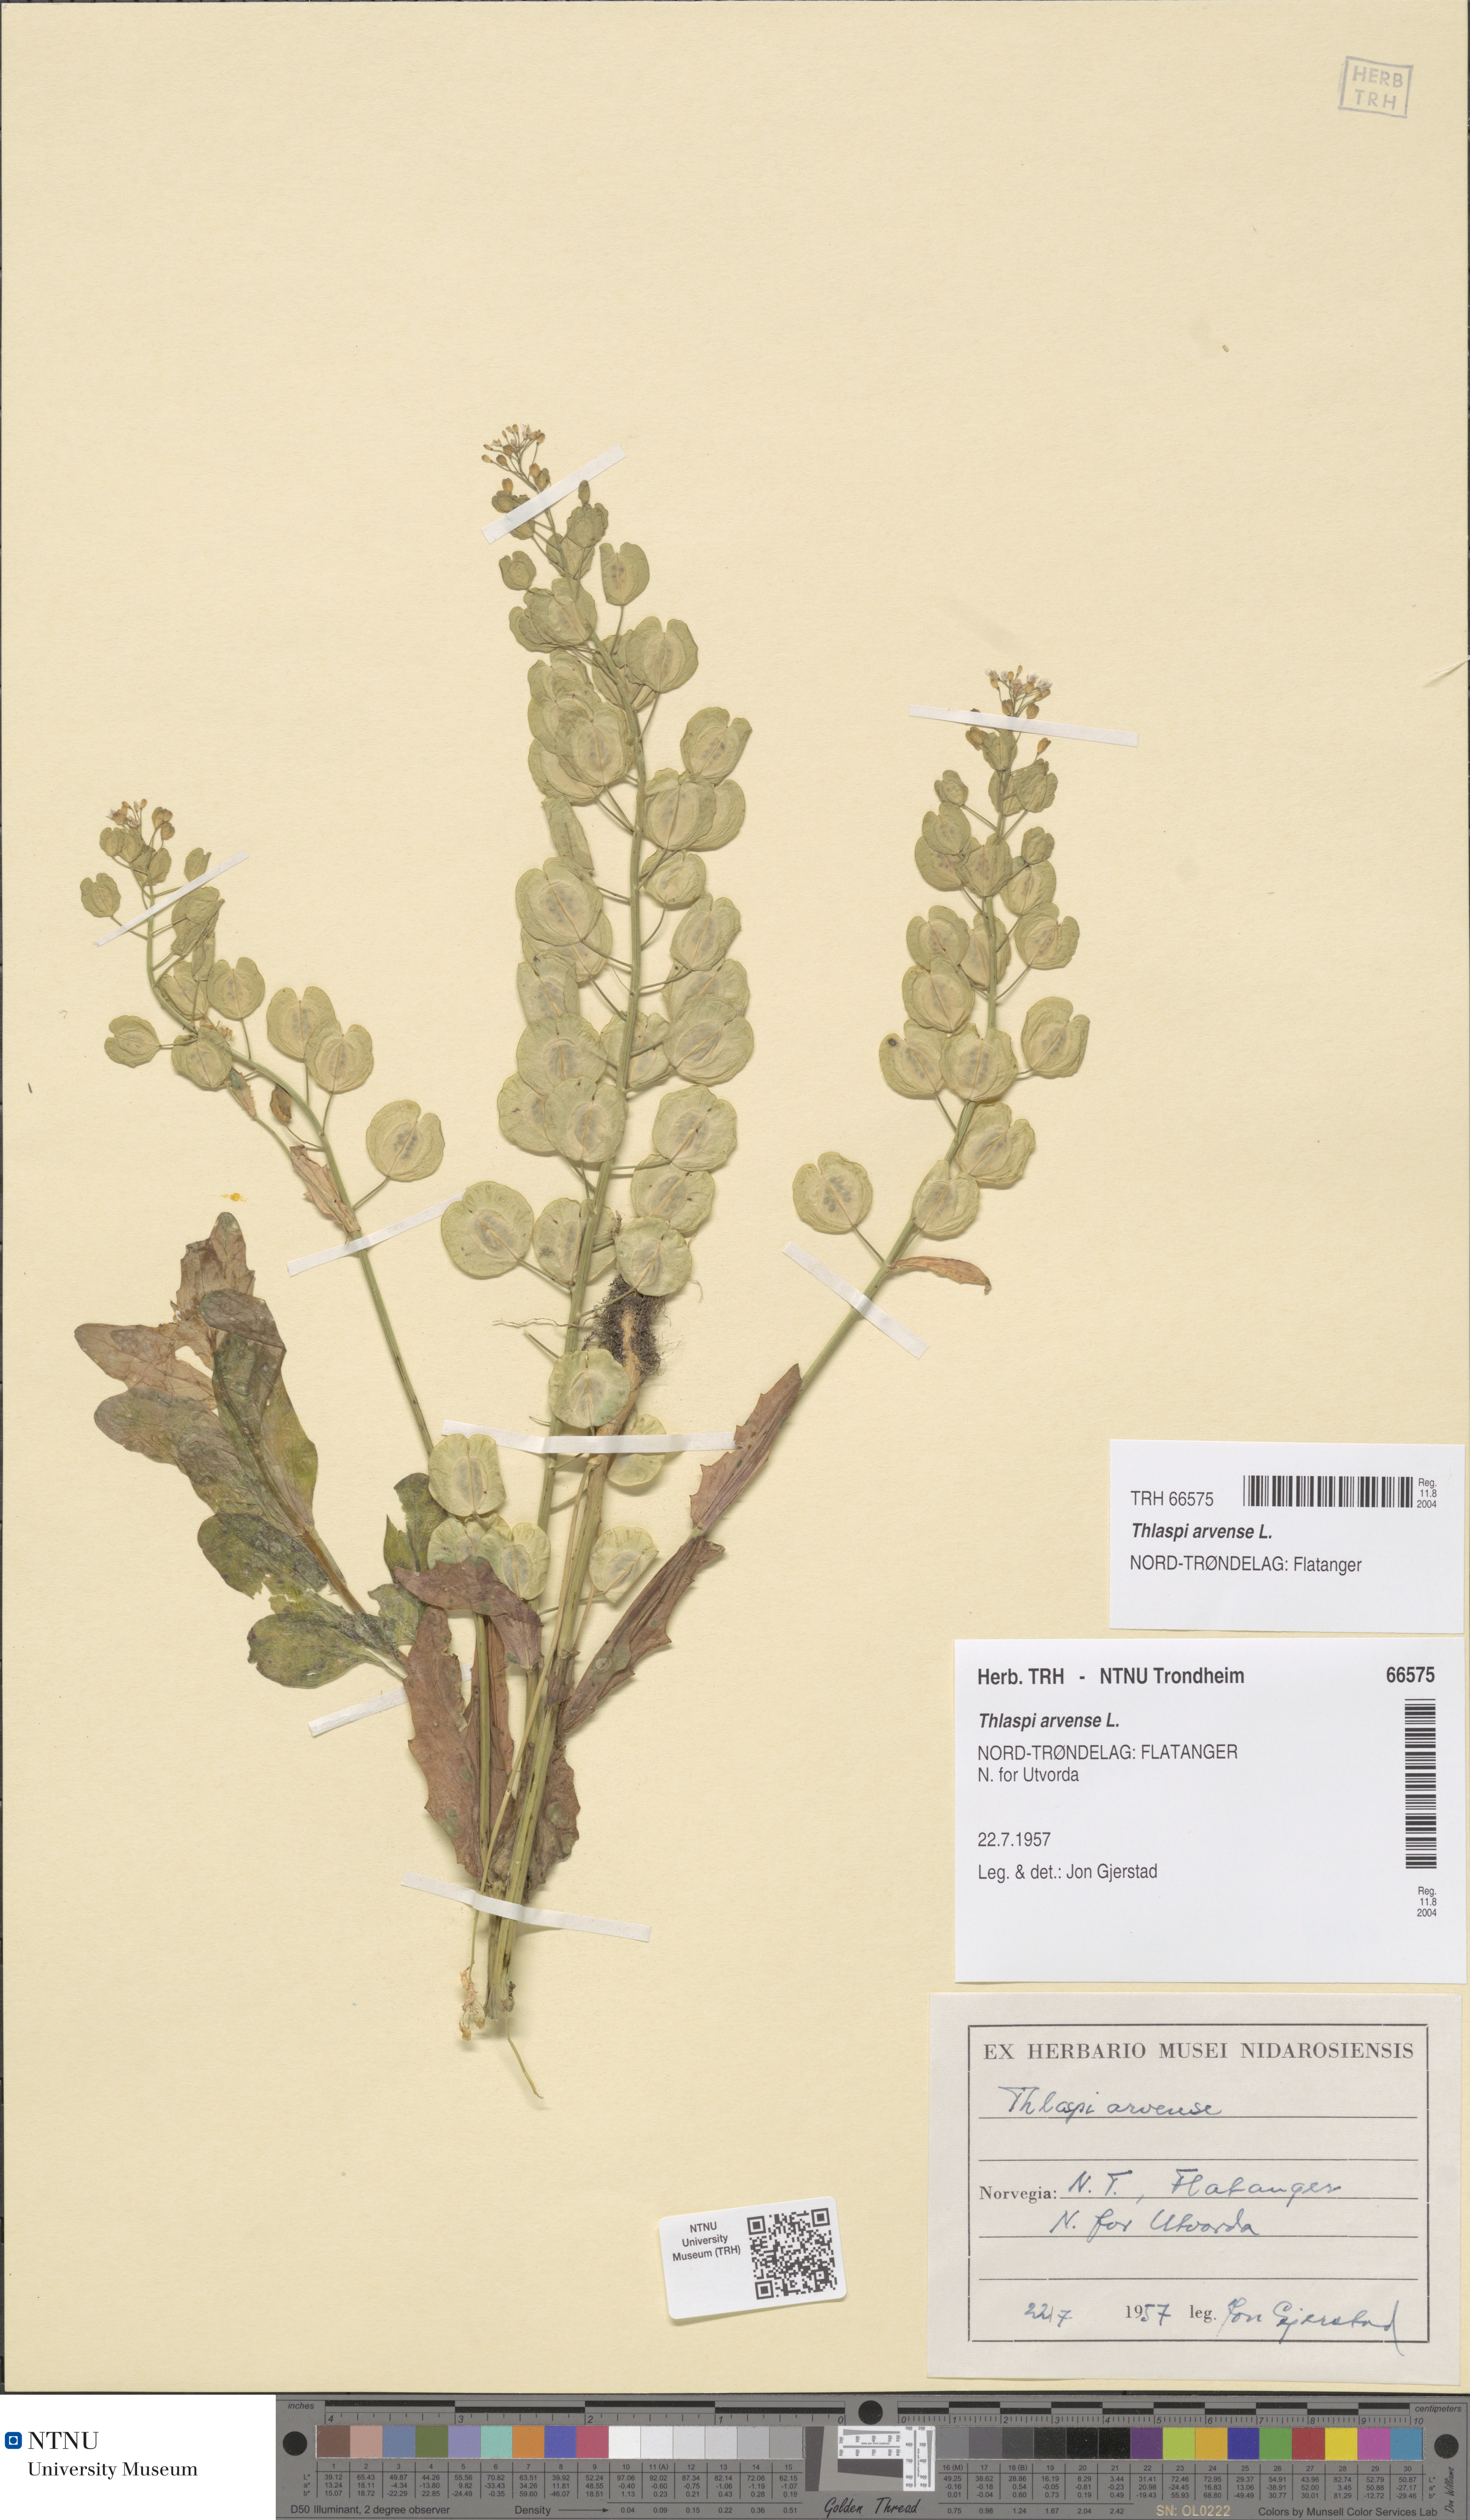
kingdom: Plantae
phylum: Tracheophyta
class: Magnoliopsida
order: Brassicales
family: Brassicaceae
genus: Thlaspi
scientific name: Thlaspi arvense
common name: Field pennycress
